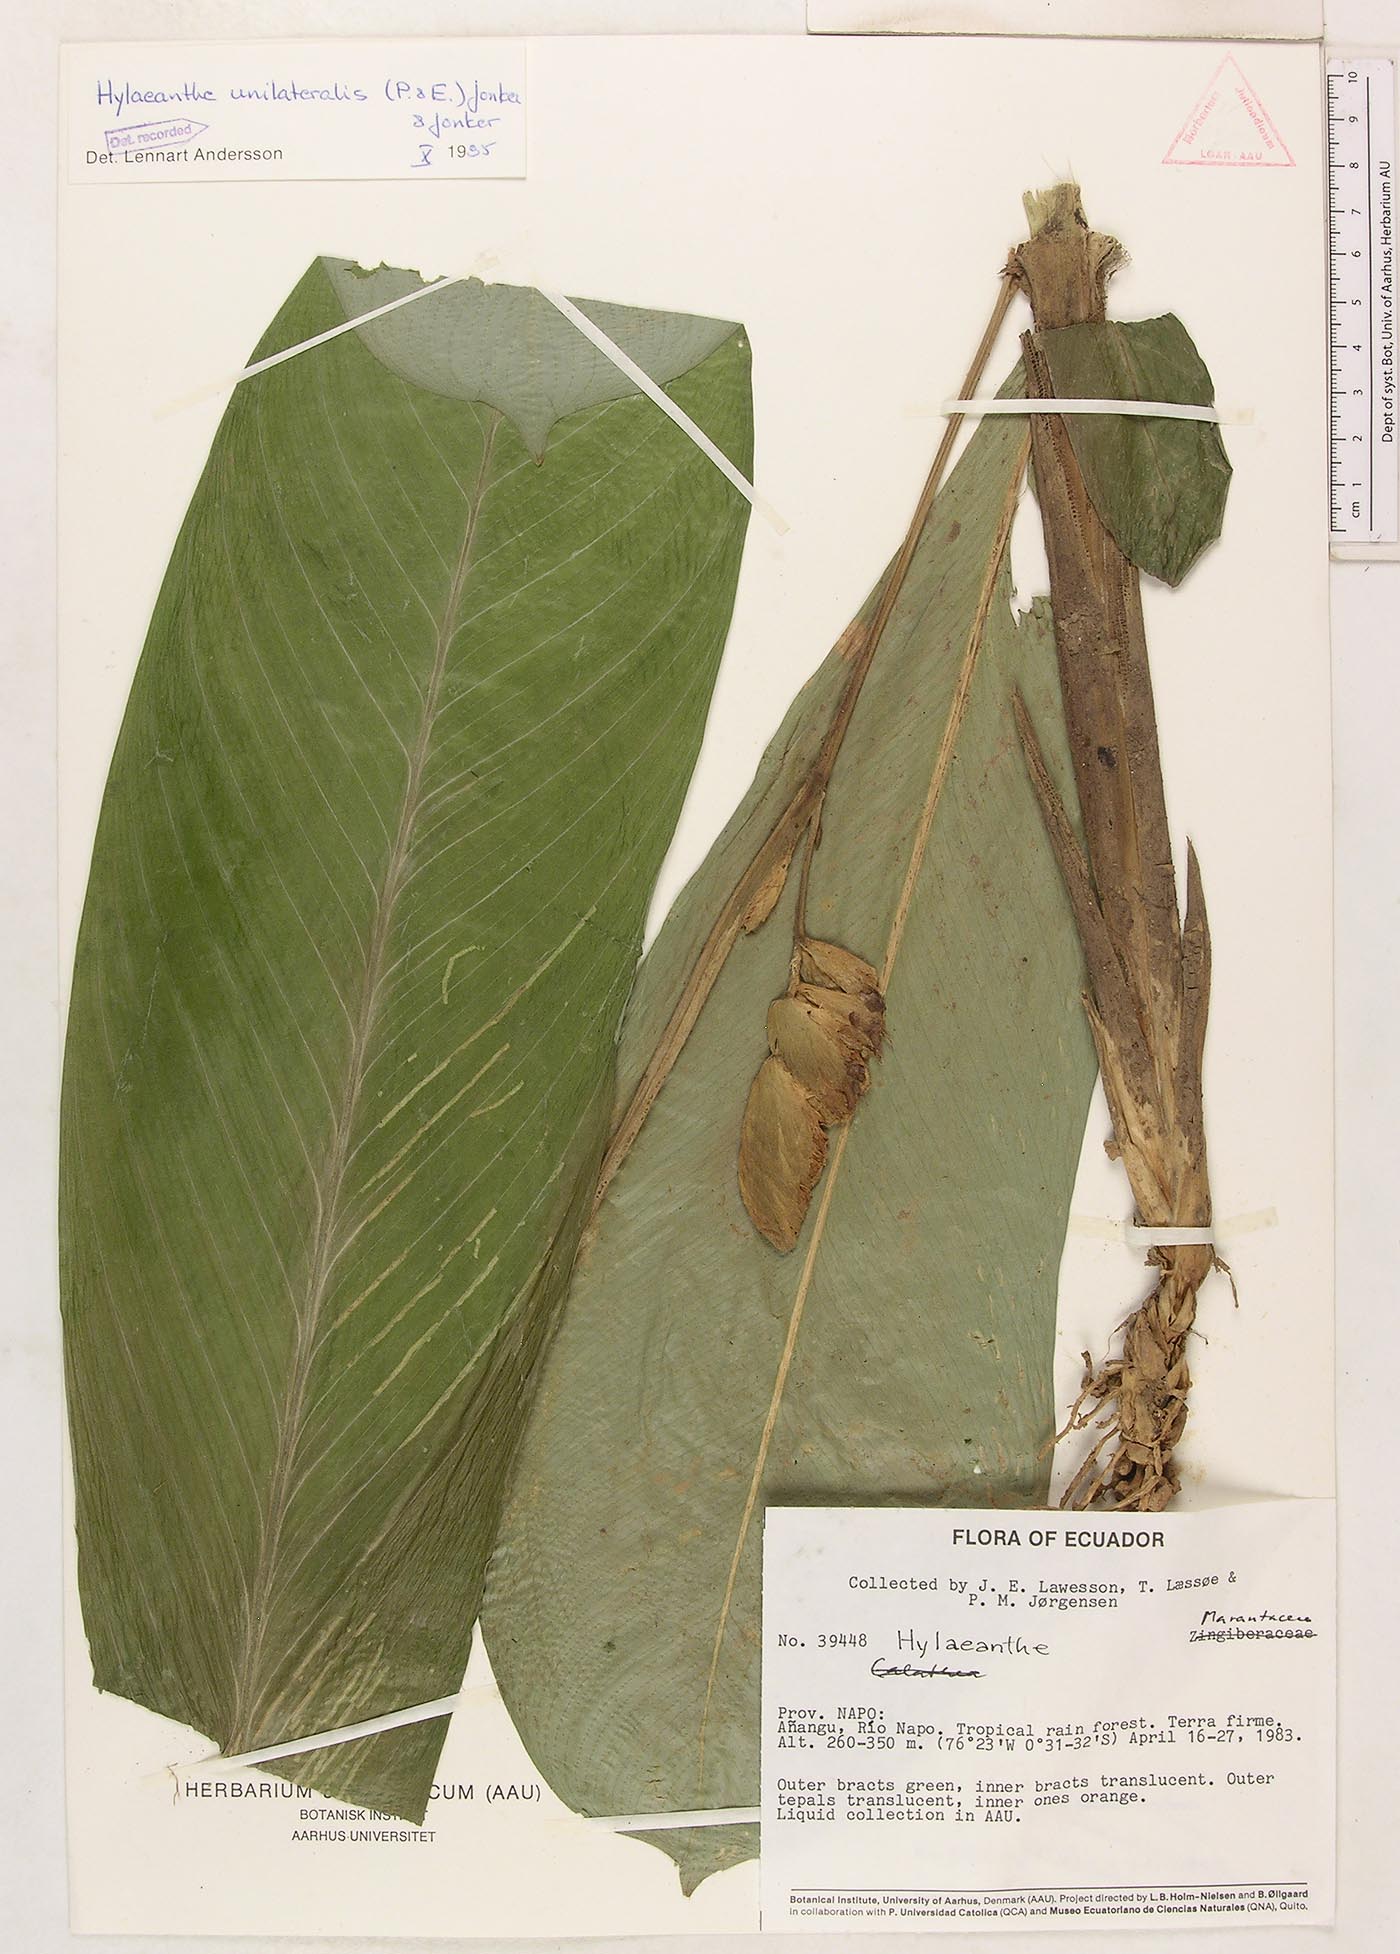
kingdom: Plantae
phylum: Tracheophyta
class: Liliopsida
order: Zingiberales
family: Marantaceae
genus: Hylaeanthe
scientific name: Hylaeanthe unilateralis
